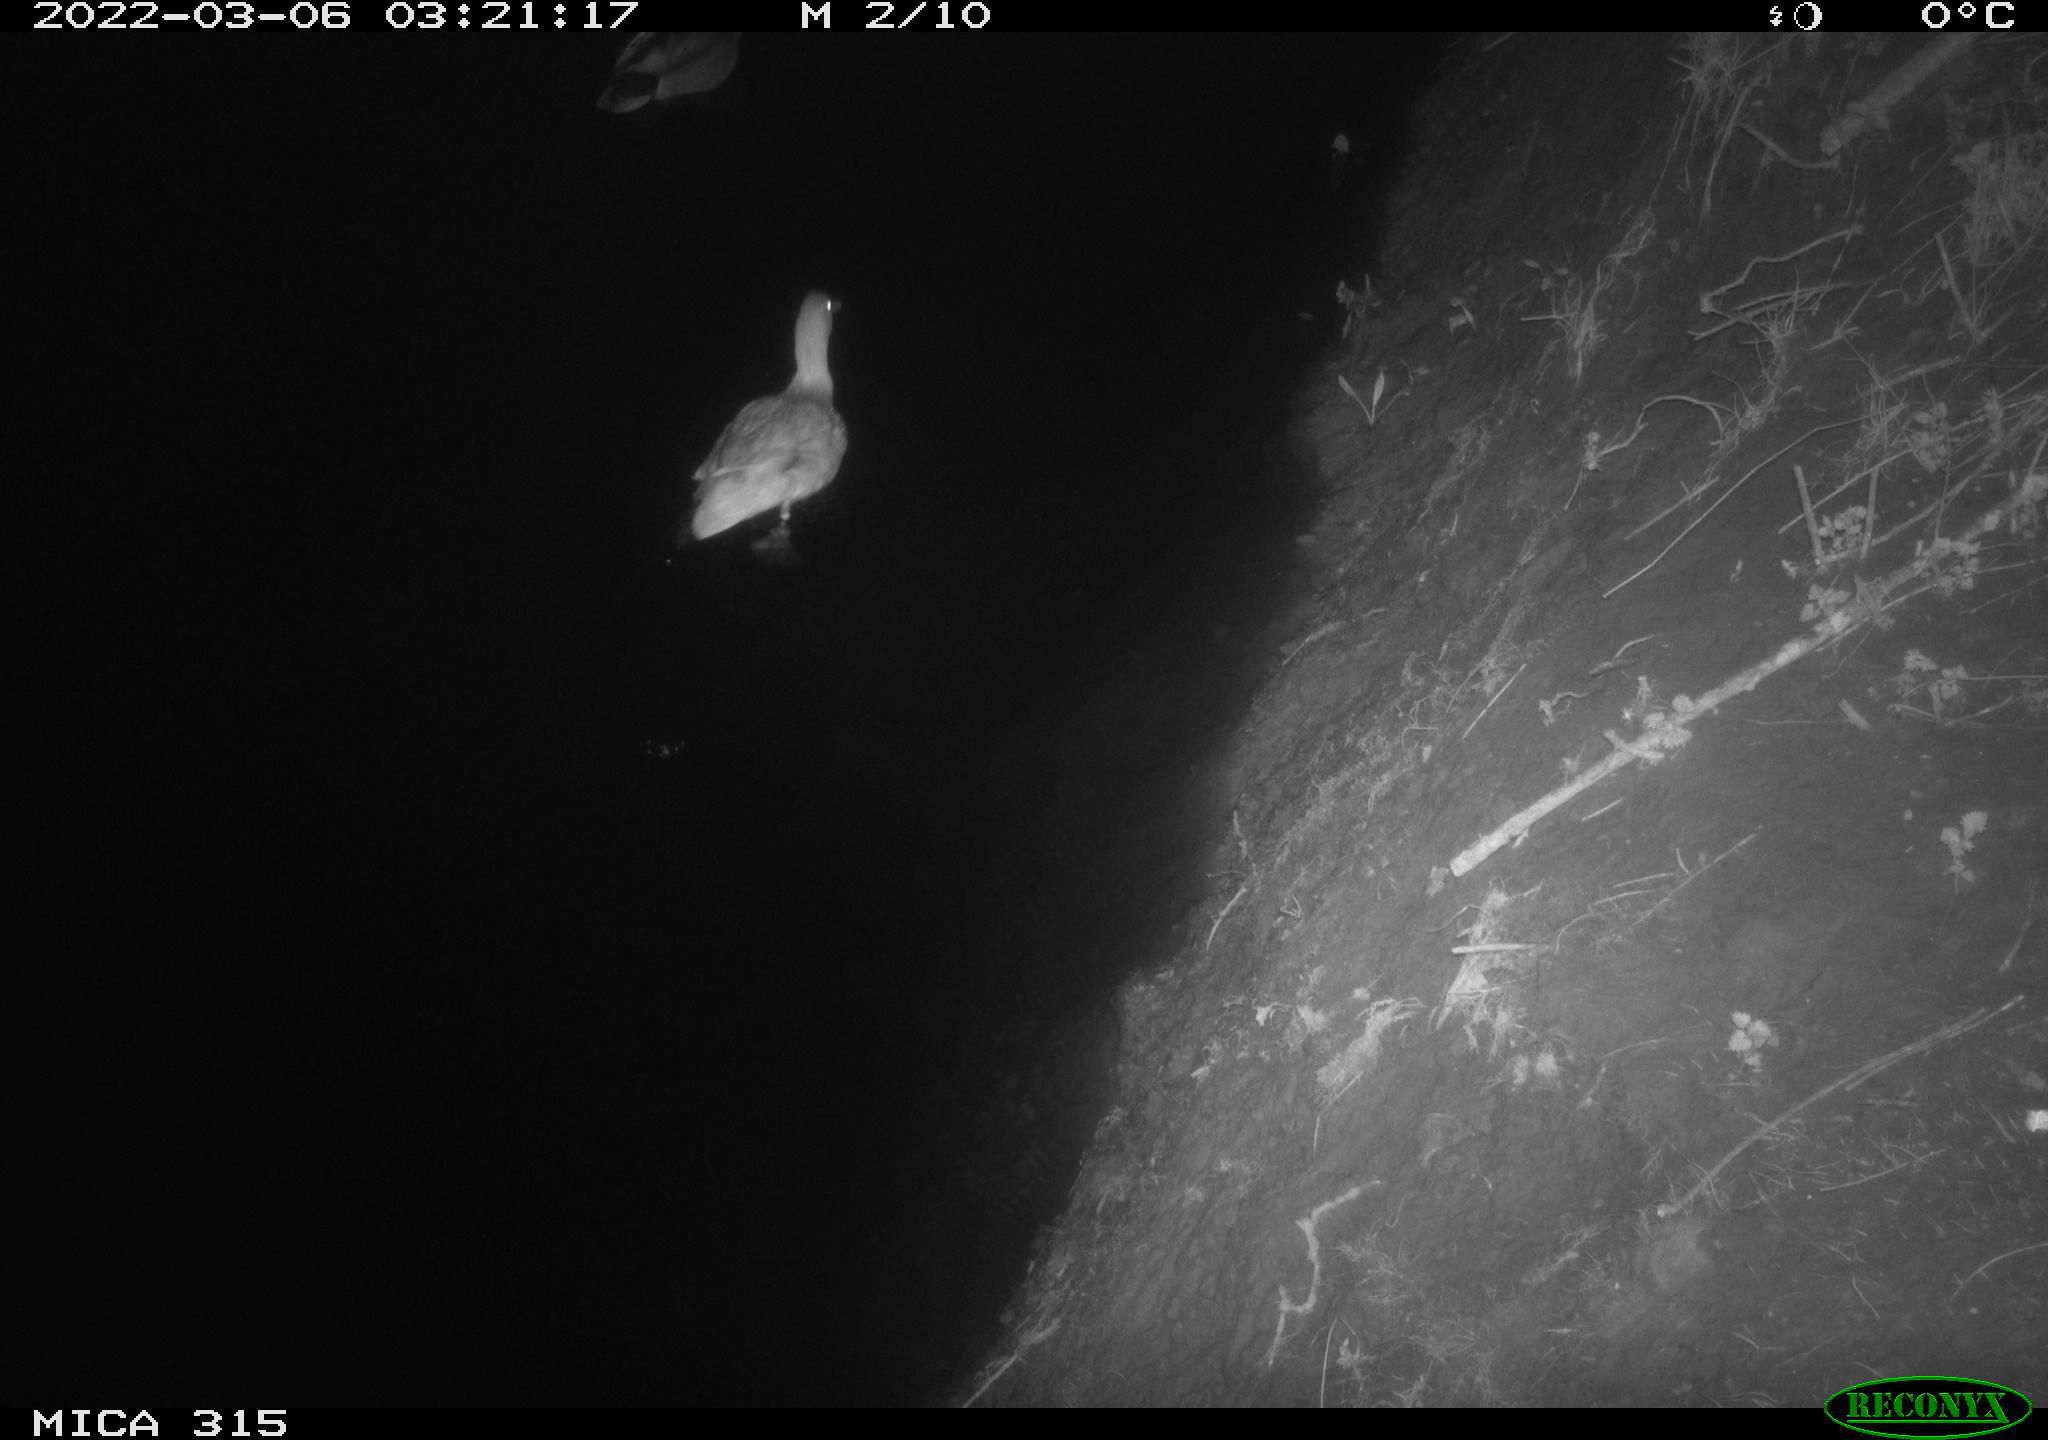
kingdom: Animalia
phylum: Chordata
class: Aves
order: Anseriformes
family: Anatidae
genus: Anas
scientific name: Anas platyrhynchos
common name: Mallard
